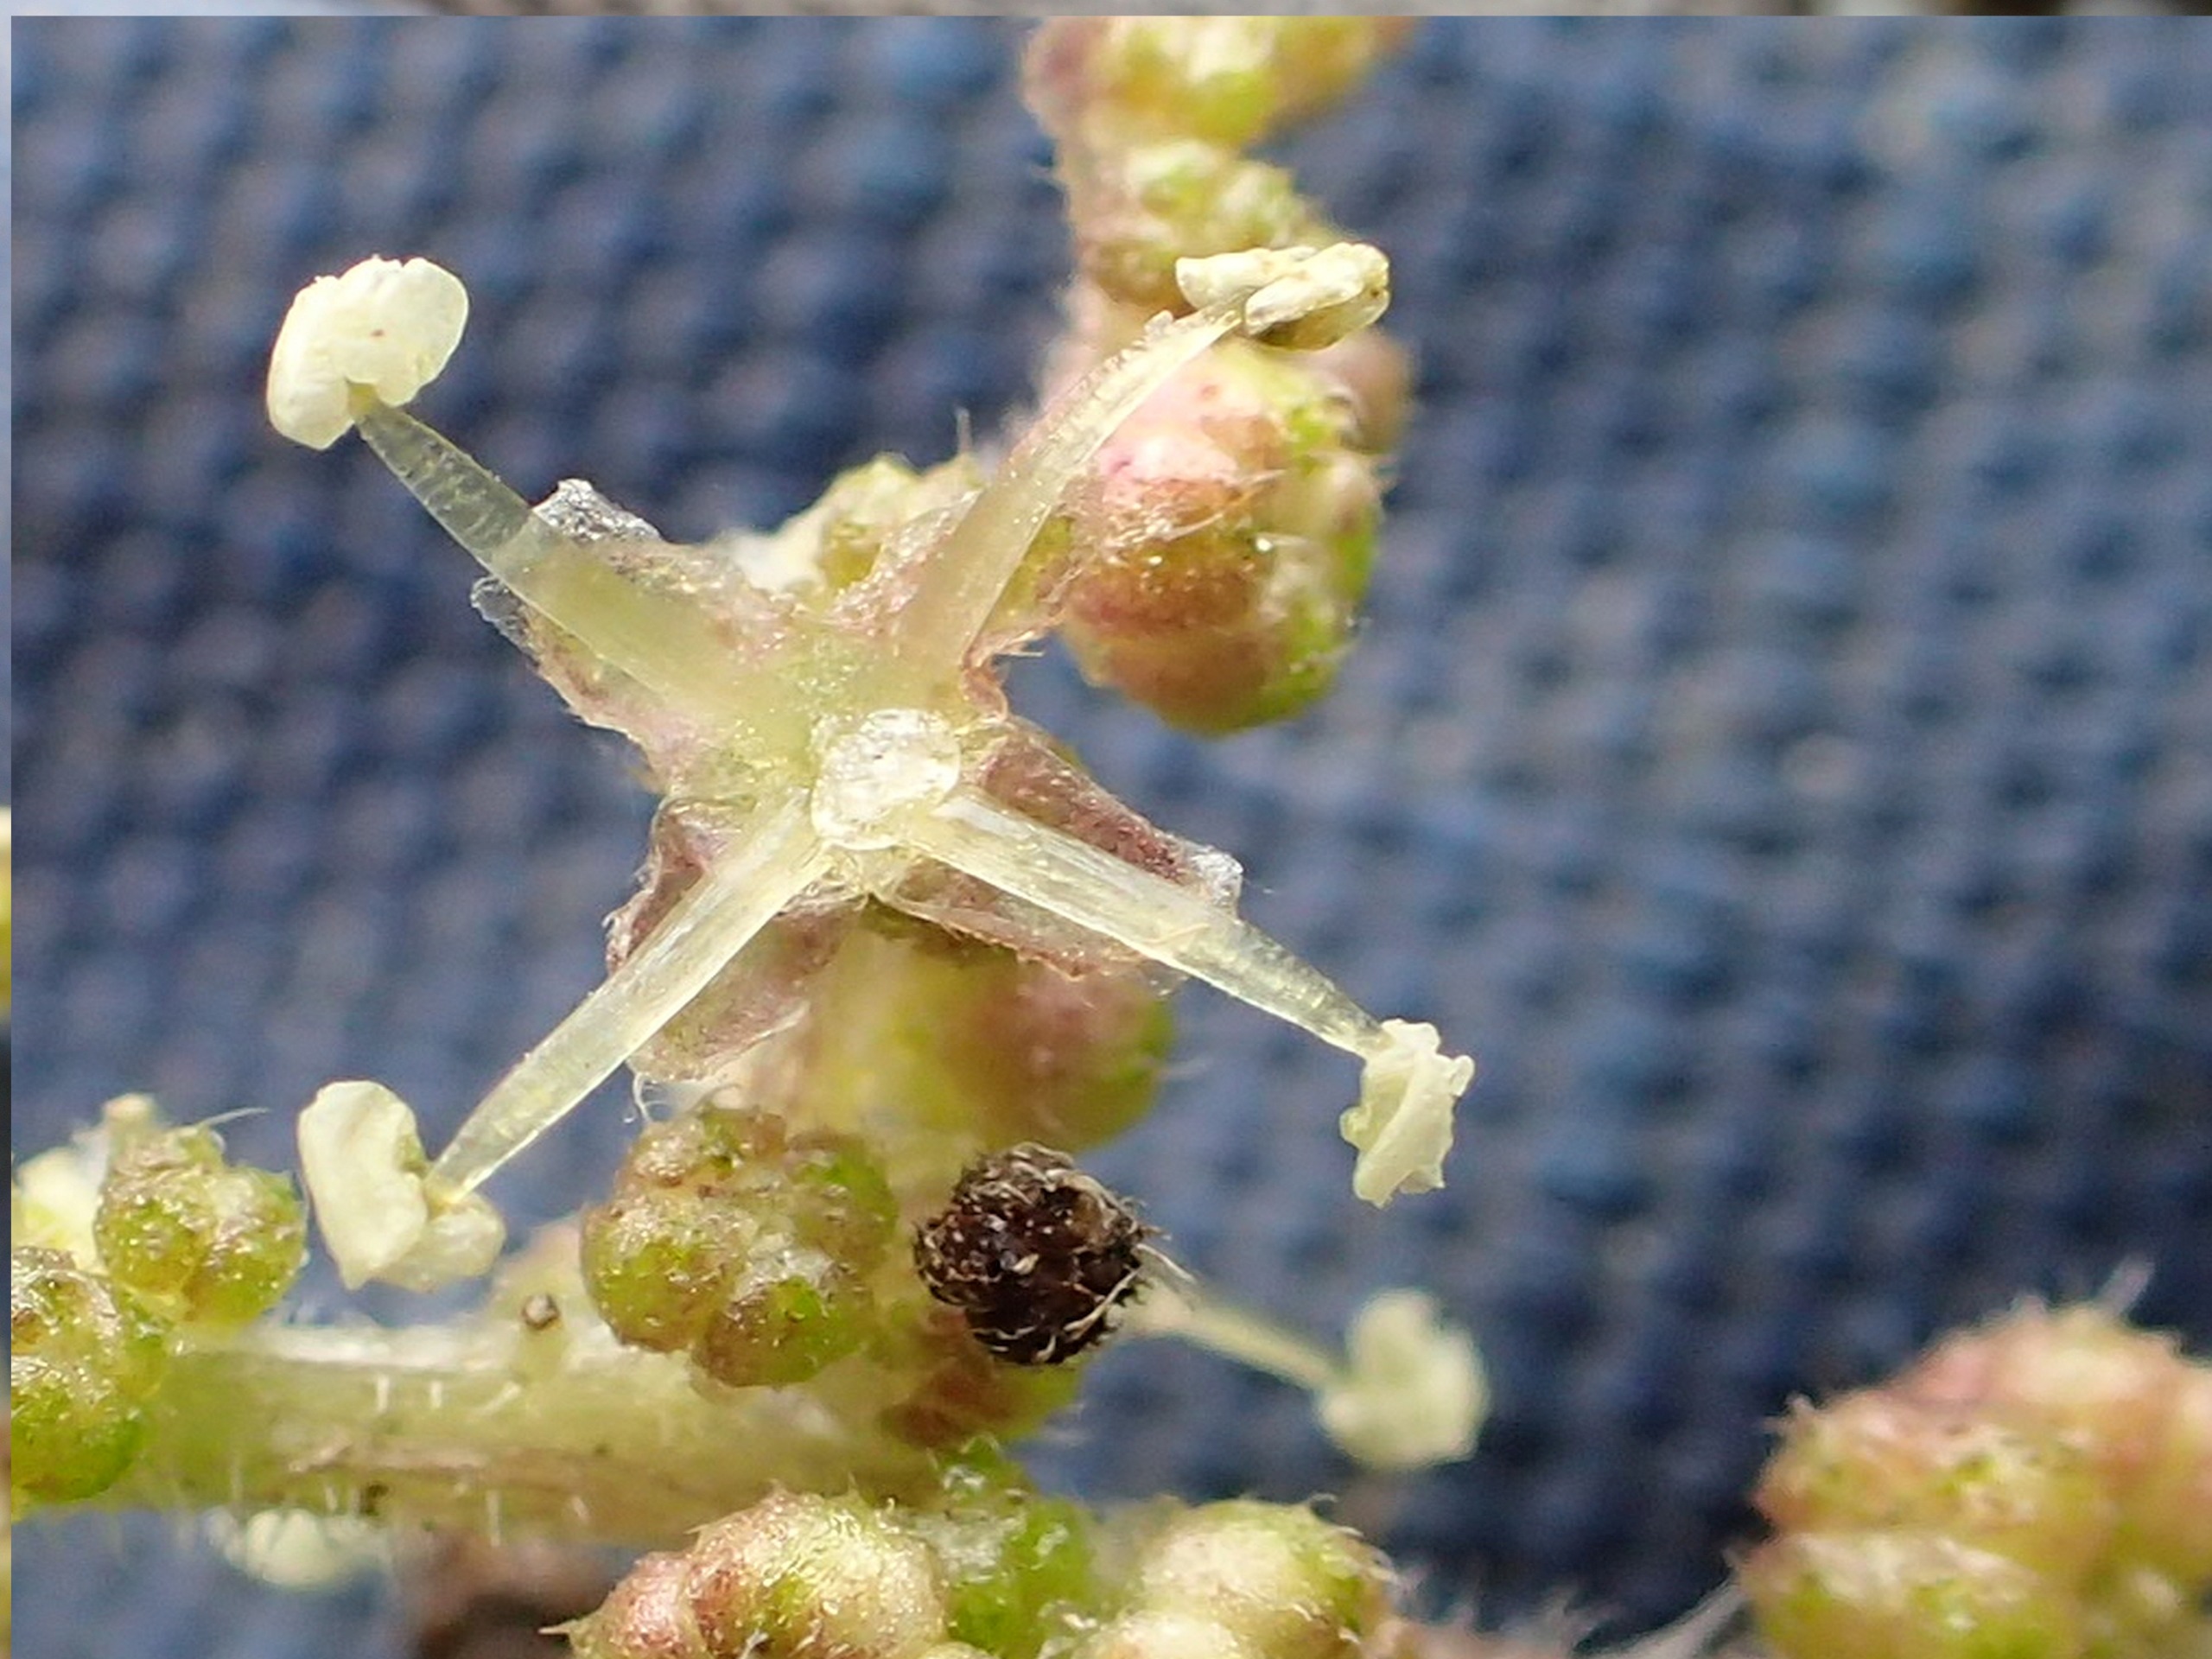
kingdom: Plantae
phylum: Tracheophyta
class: Magnoliopsida
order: Rosales
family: Urticaceae
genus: Urtica
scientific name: Urtica dioica
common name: Stor nælde
